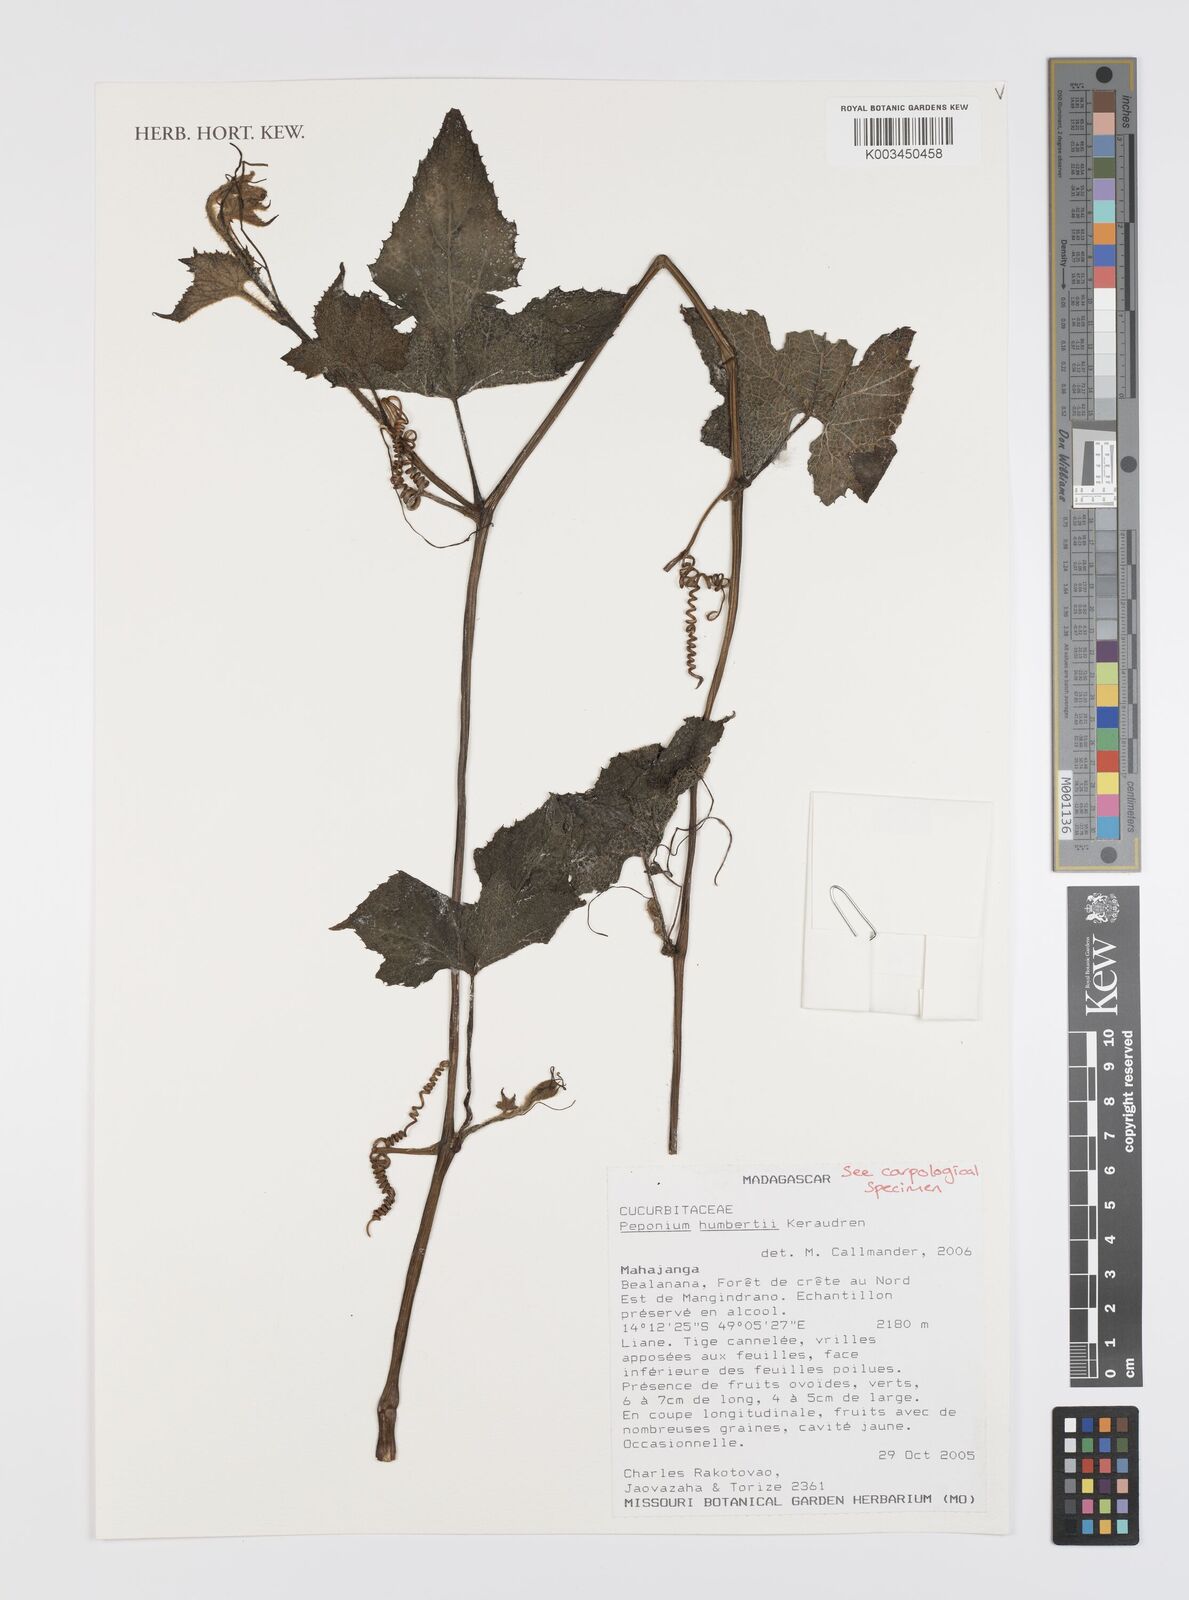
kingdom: Plantae
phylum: Tracheophyta
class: Magnoliopsida
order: Cucurbitales
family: Cucurbitaceae
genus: Peponium
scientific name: Peponium humbertii
